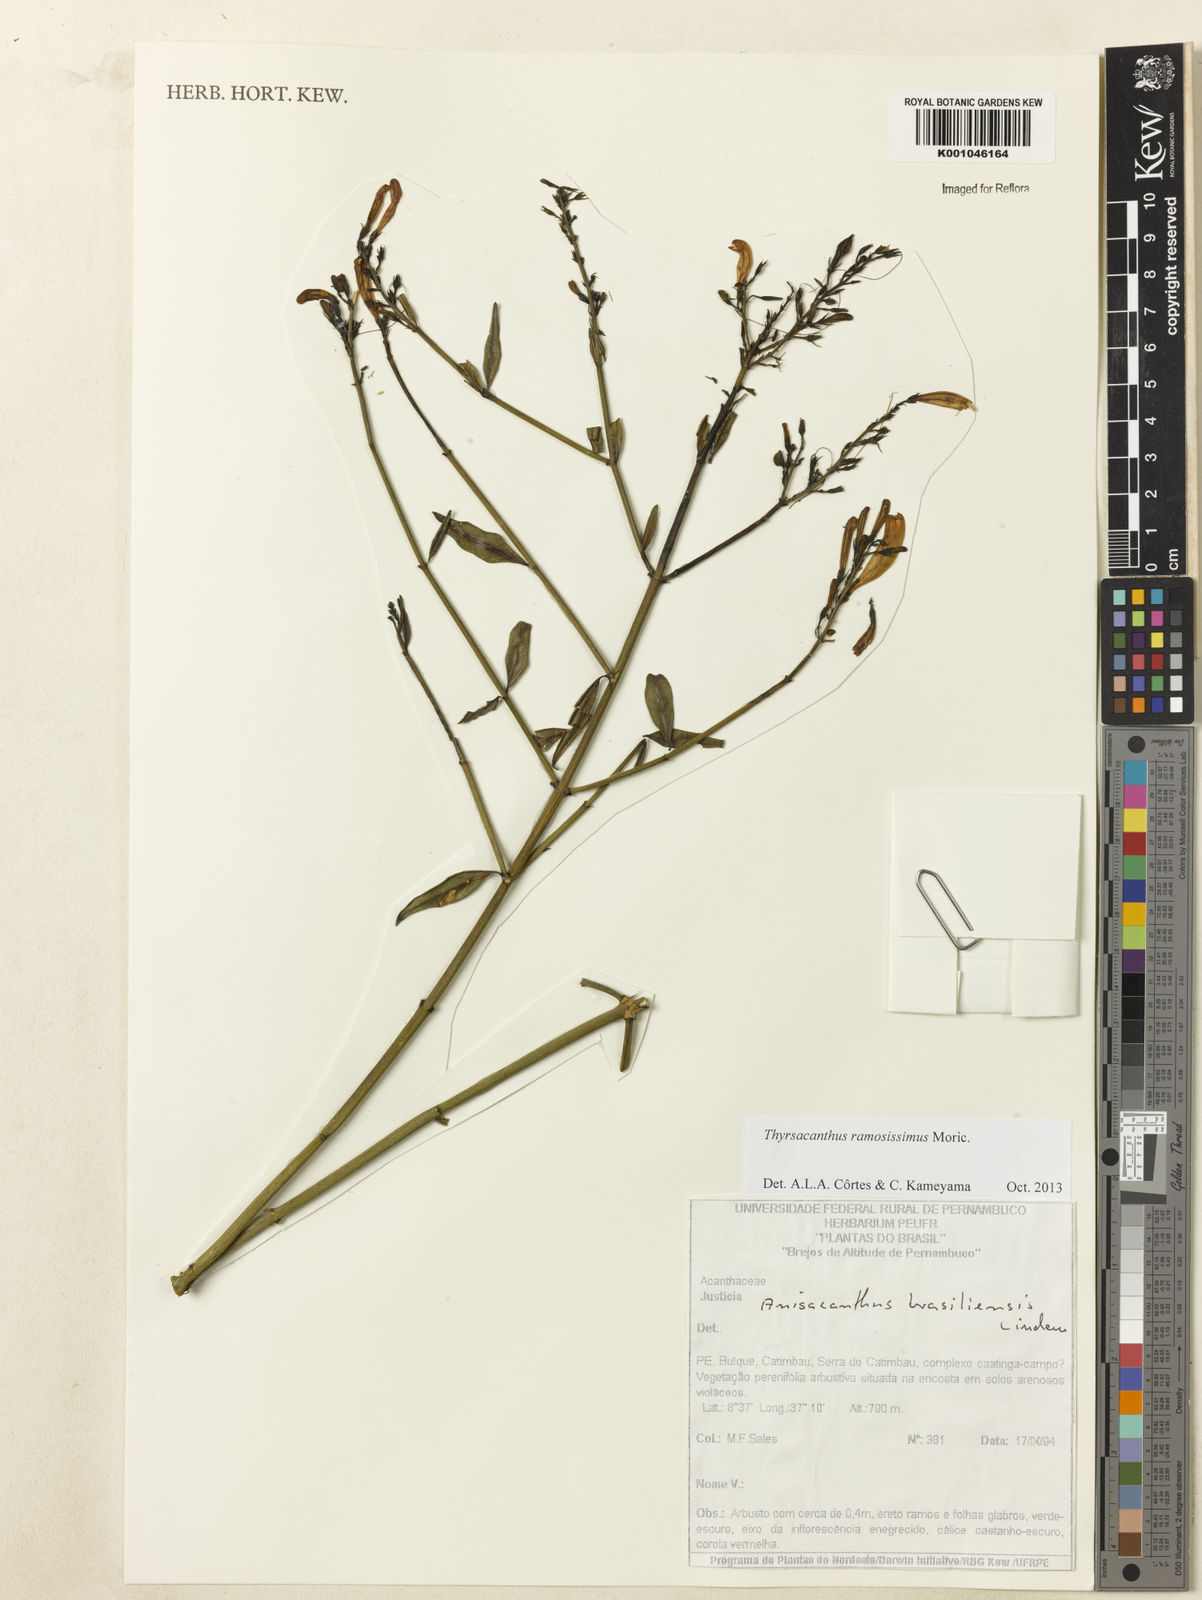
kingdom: Plantae
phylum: Tracheophyta
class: Magnoliopsida
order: Lamiales
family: Acanthaceae
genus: Thyrsacanthus
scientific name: Thyrsacanthus ramosissimus
